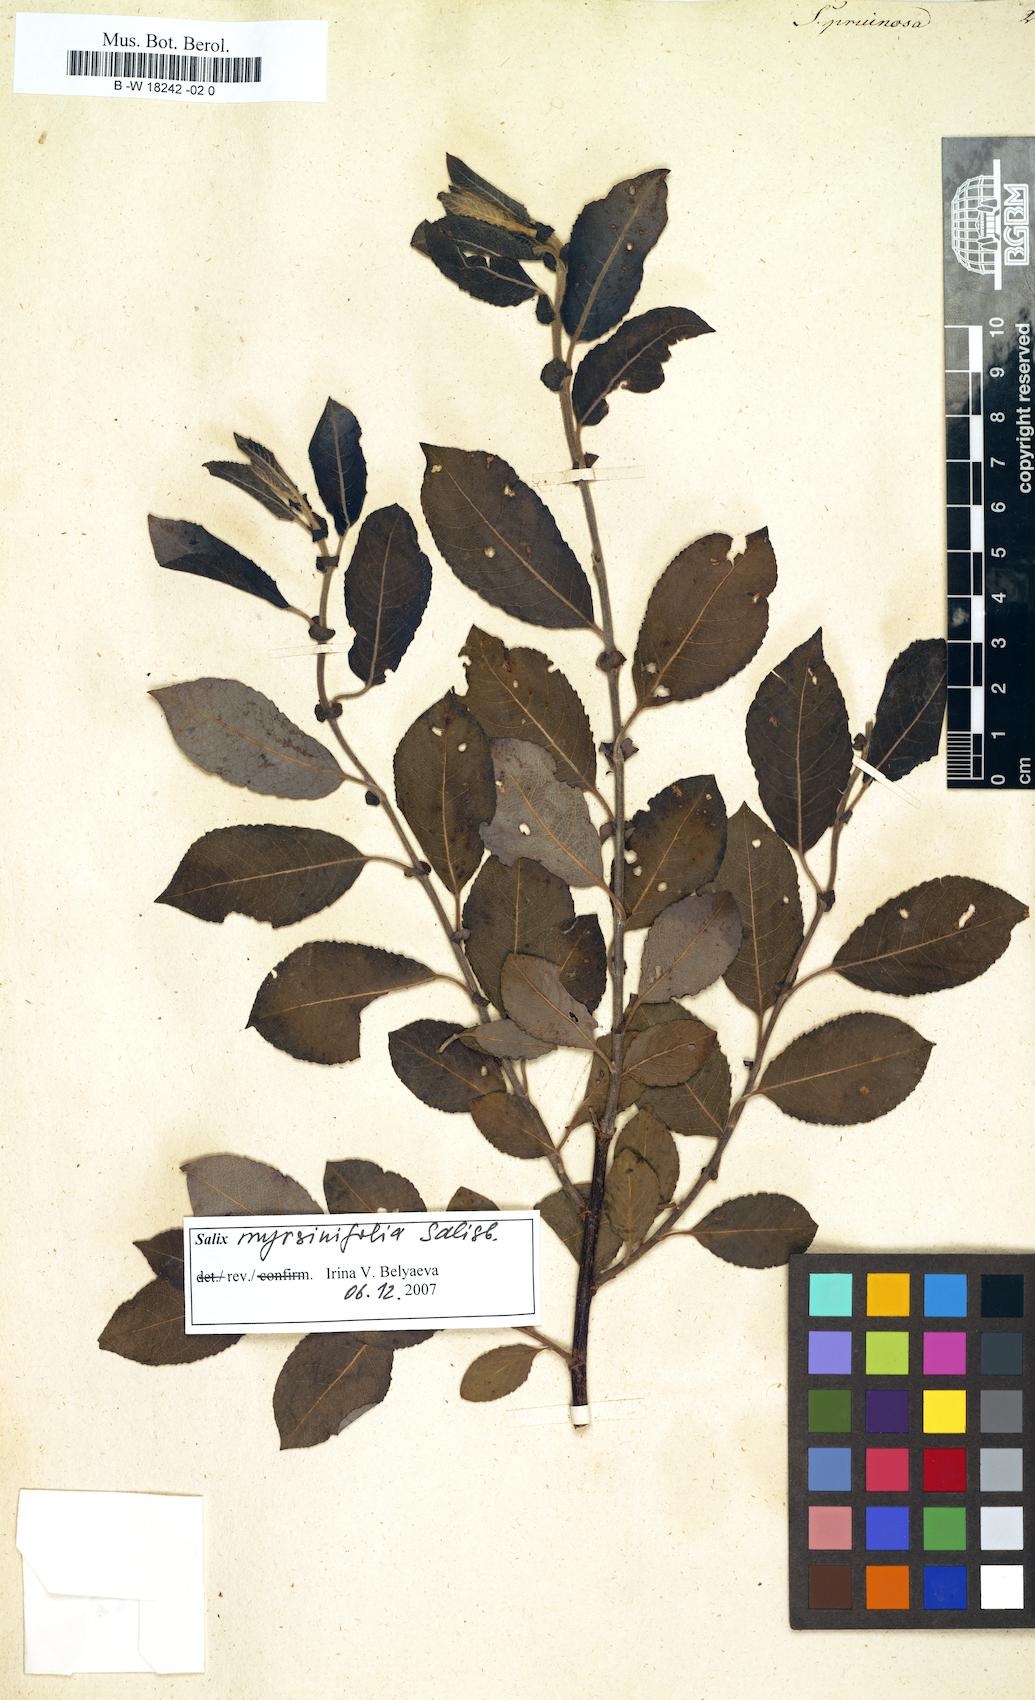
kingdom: Plantae
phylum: Tracheophyta
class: Magnoliopsida
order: Malpighiales
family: Salicaceae
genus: Salix
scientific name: Salix
